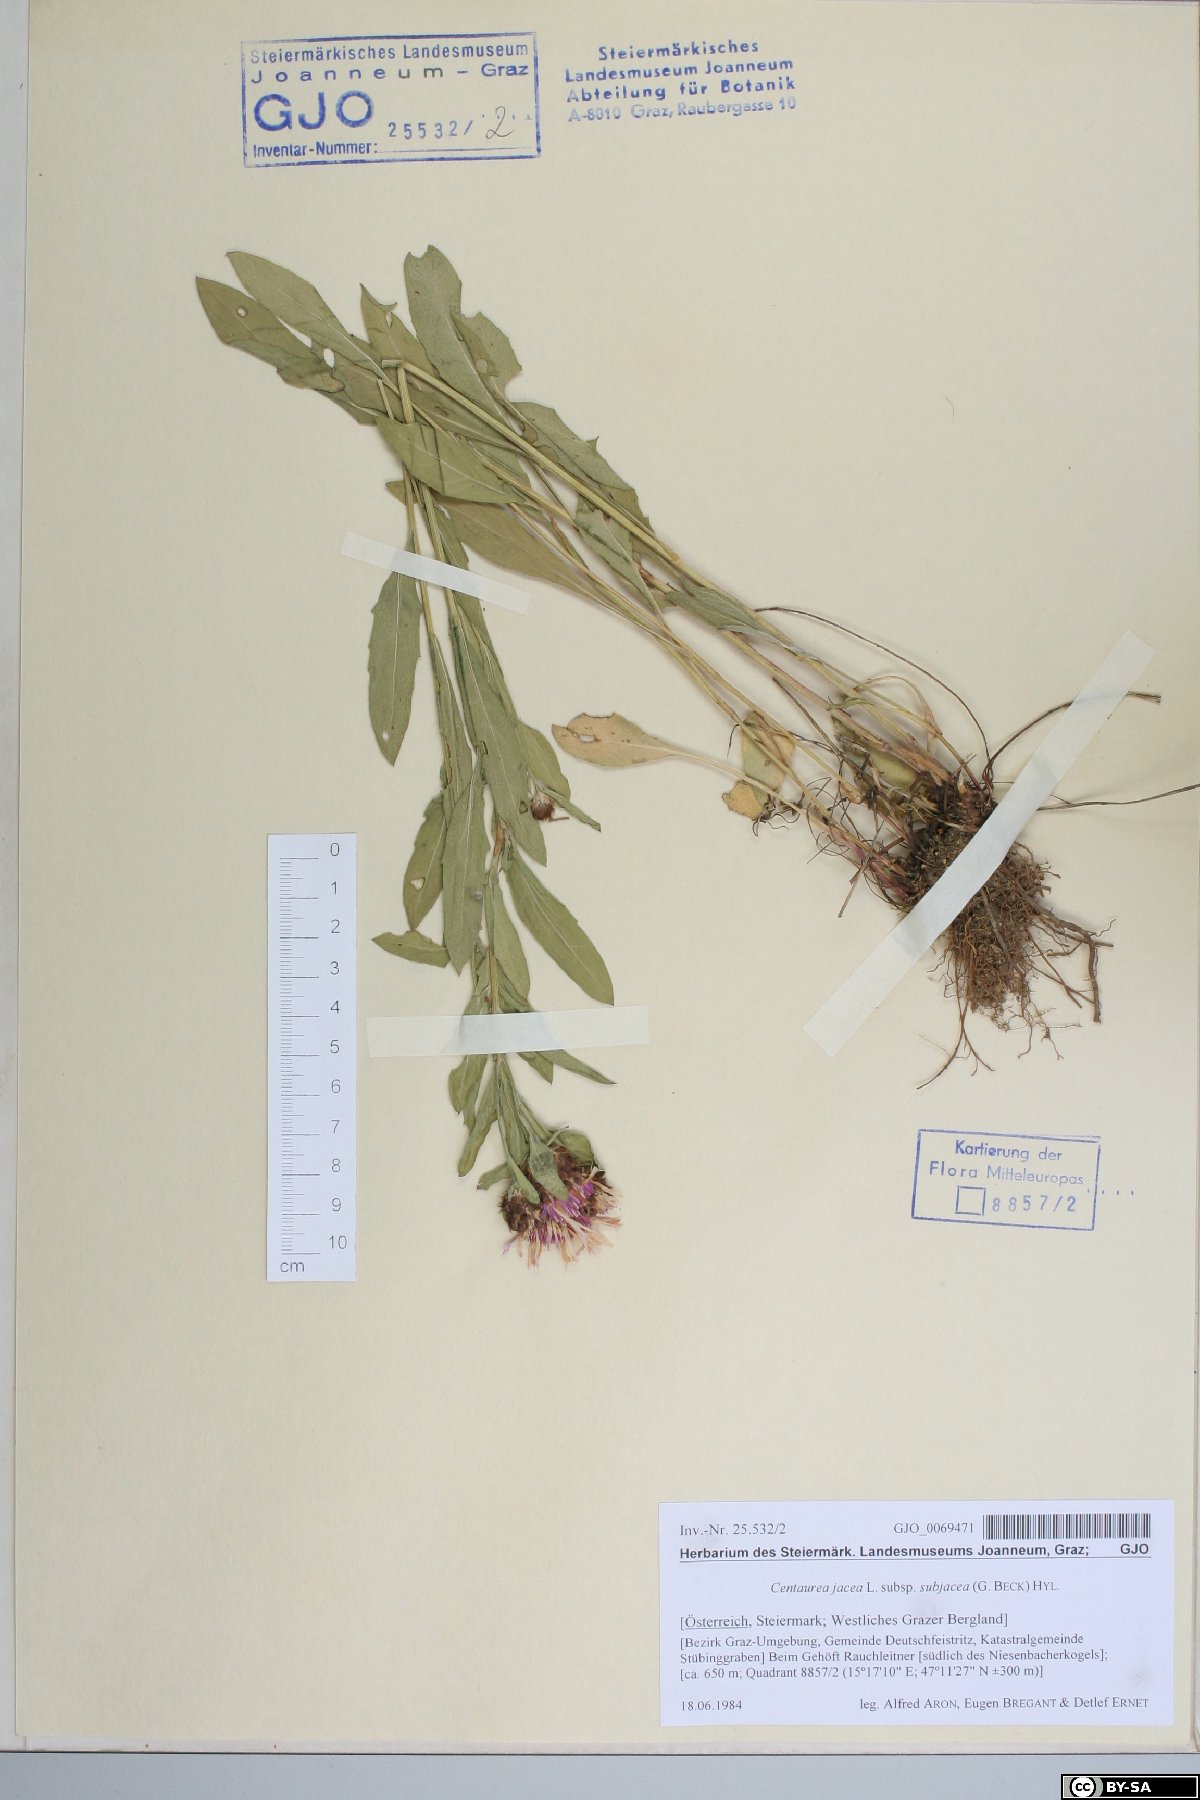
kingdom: Plantae
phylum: Tracheophyta
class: Magnoliopsida
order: Asterales
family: Asteraceae
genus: Centaurea
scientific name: Centaurea preissmannii
